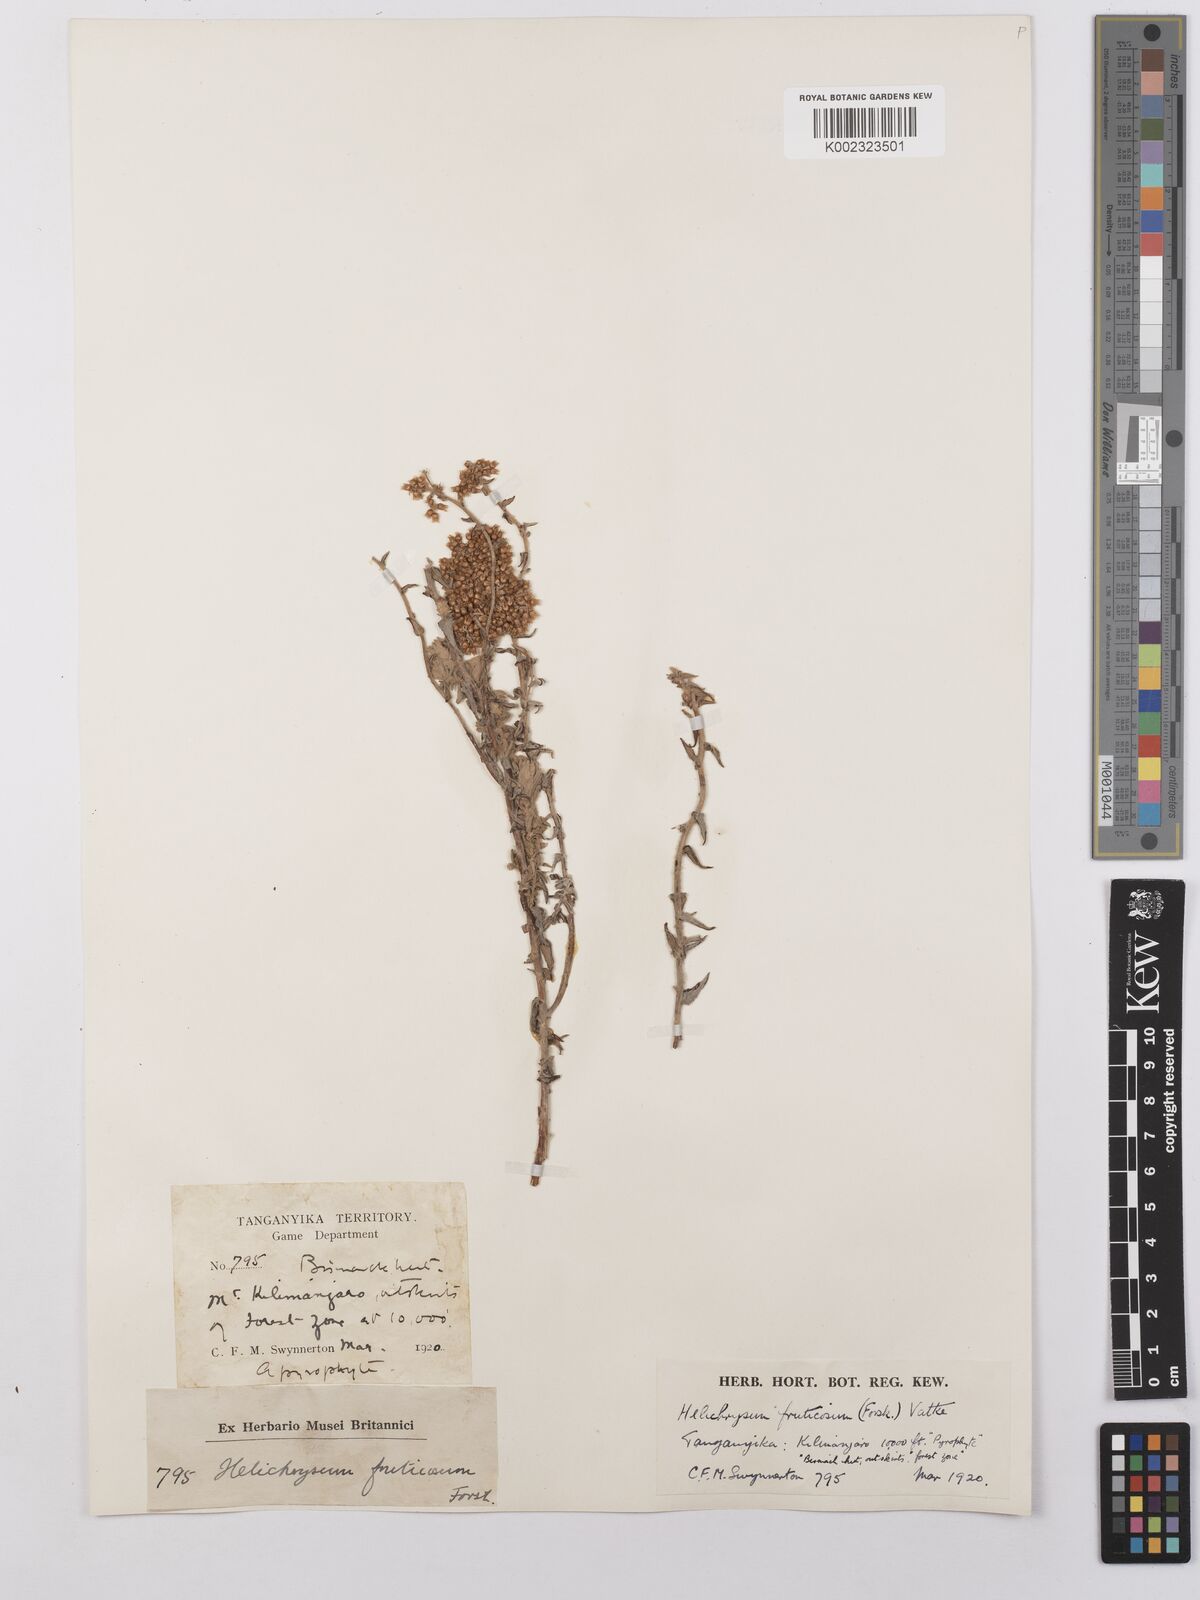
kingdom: Plantae
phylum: Tracheophyta
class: Magnoliopsida
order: Asterales
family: Asteraceae
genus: Helichrysum
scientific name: Helichrysum forskahlii
